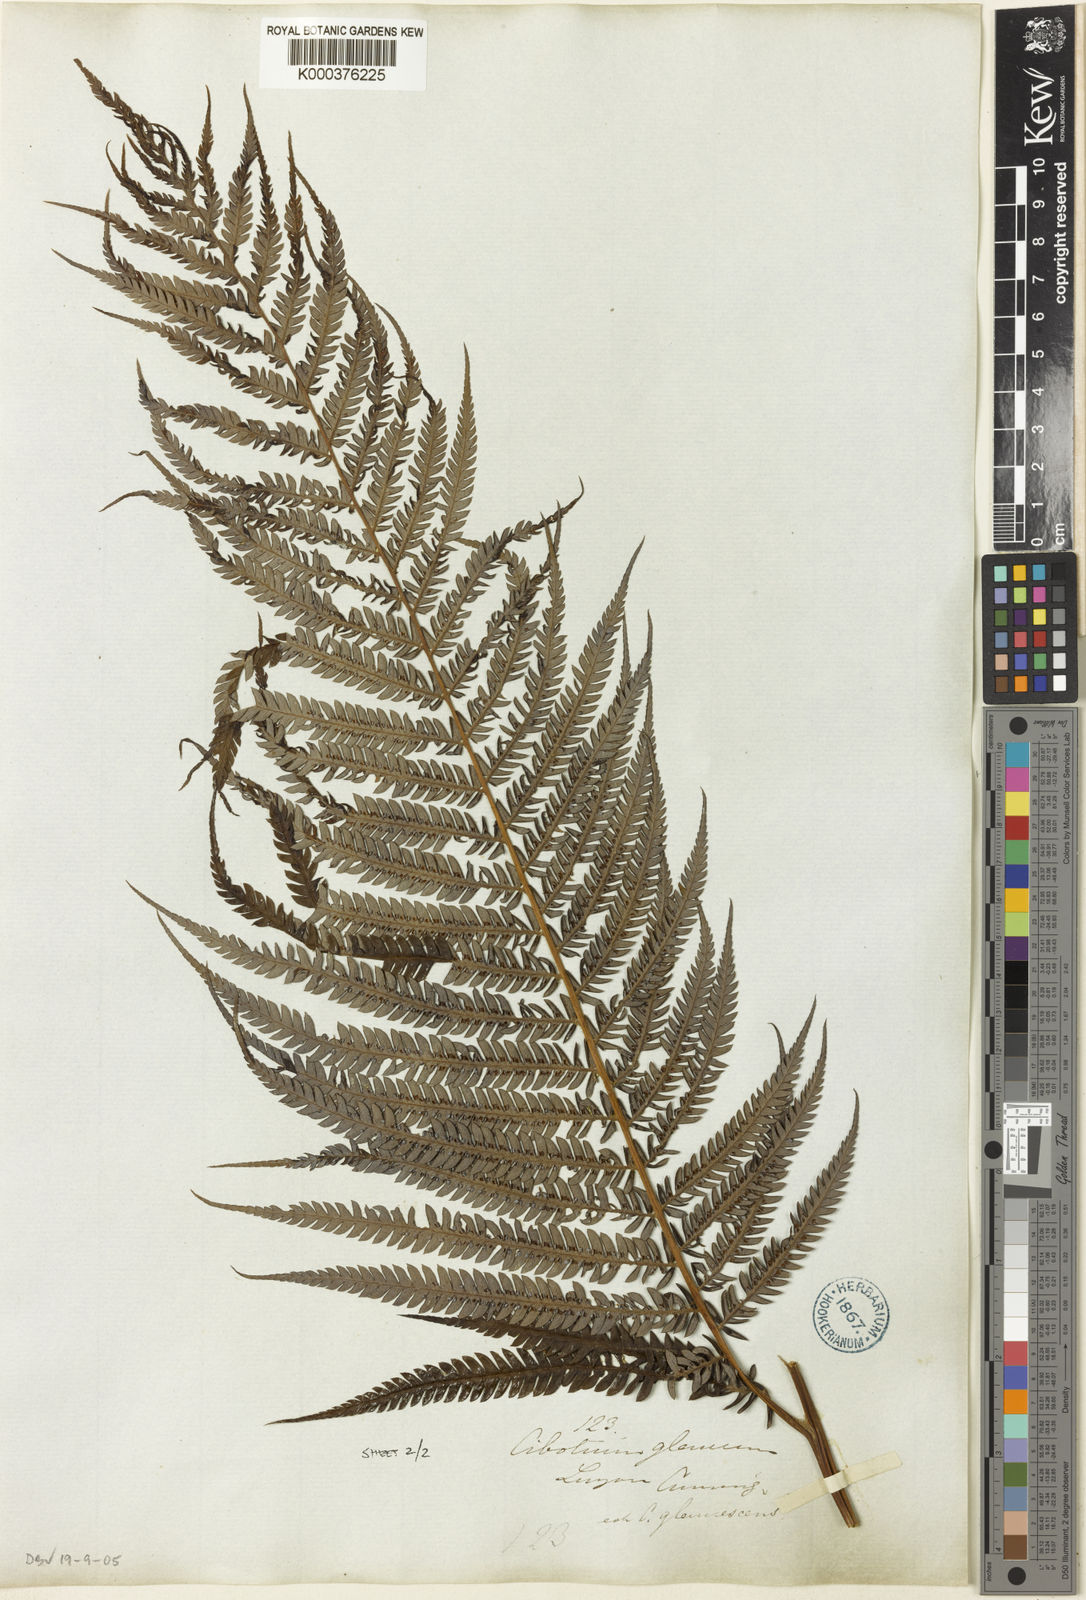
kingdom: Plantae
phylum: Tracheophyta
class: Polypodiopsida
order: Cyatheales
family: Cibotiaceae
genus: Cibotium
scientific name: Cibotium cumingii
